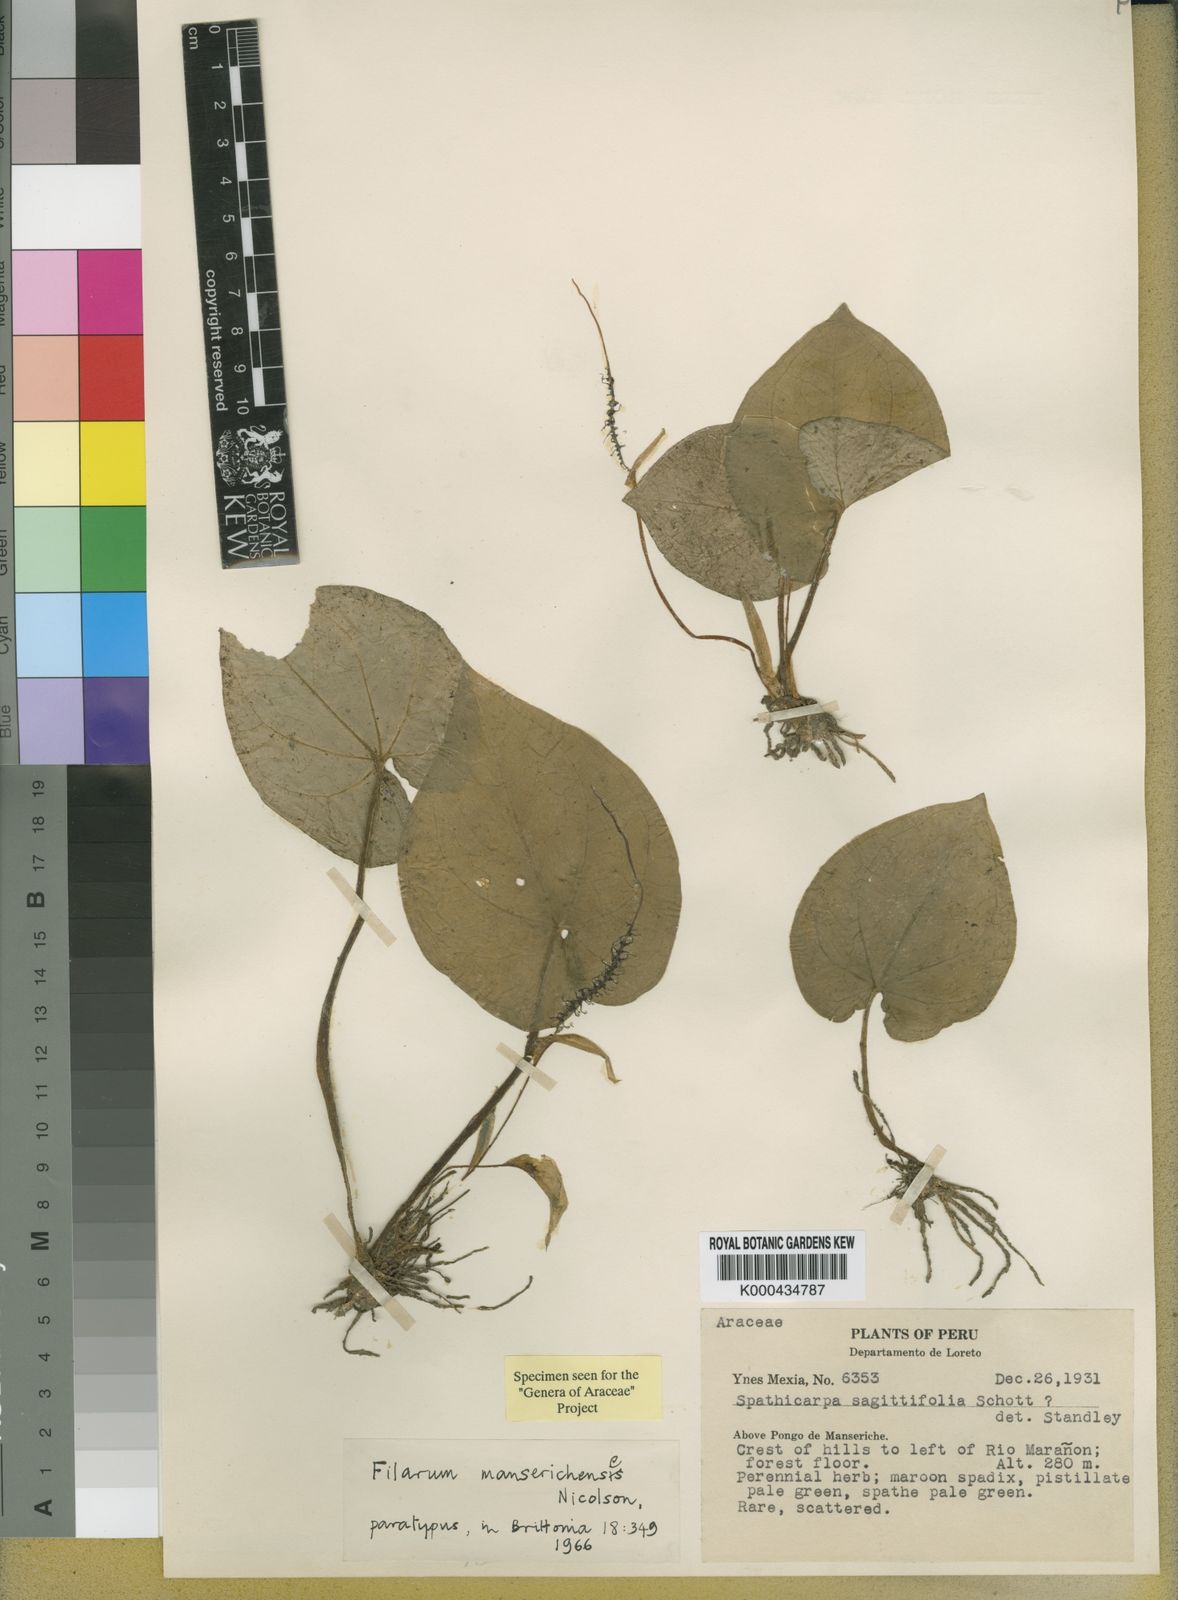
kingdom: Plantae
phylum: Tracheophyta
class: Liliopsida
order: Alismatales
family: Araceae
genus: Filarum
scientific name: Filarum manserichense
